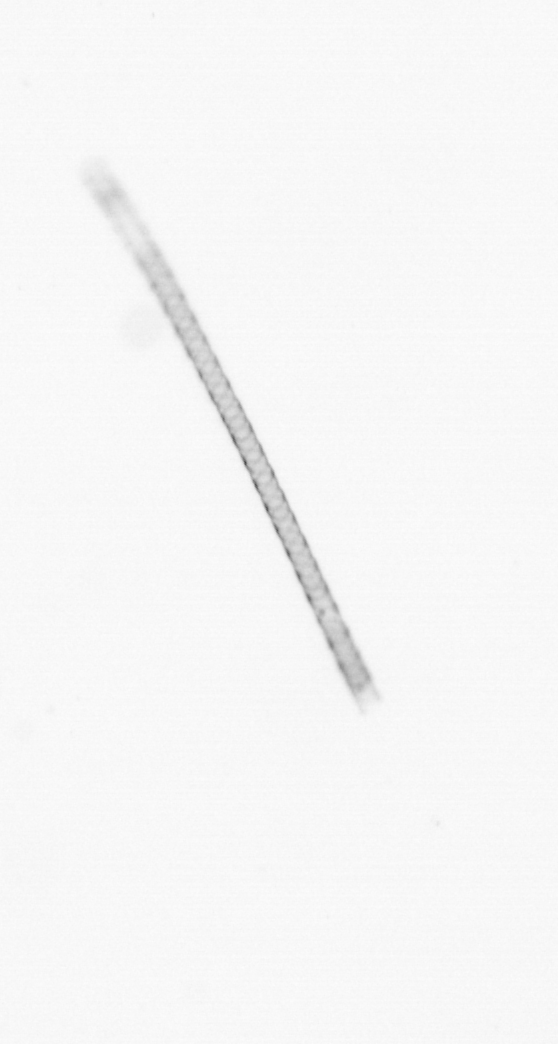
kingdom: Chromista
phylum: Ochrophyta
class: Bacillariophyceae
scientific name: Bacillariophyceae
